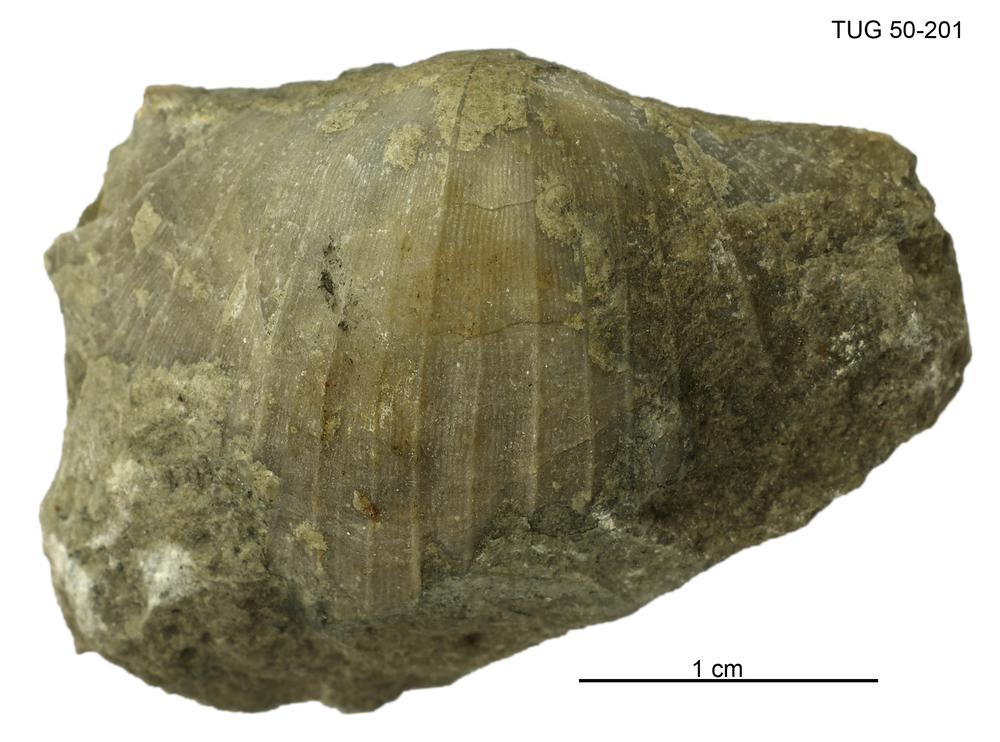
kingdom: Animalia
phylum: Brachiopoda
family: Oldhaminidae
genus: Eoplectodonta
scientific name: Eoplectodonta
